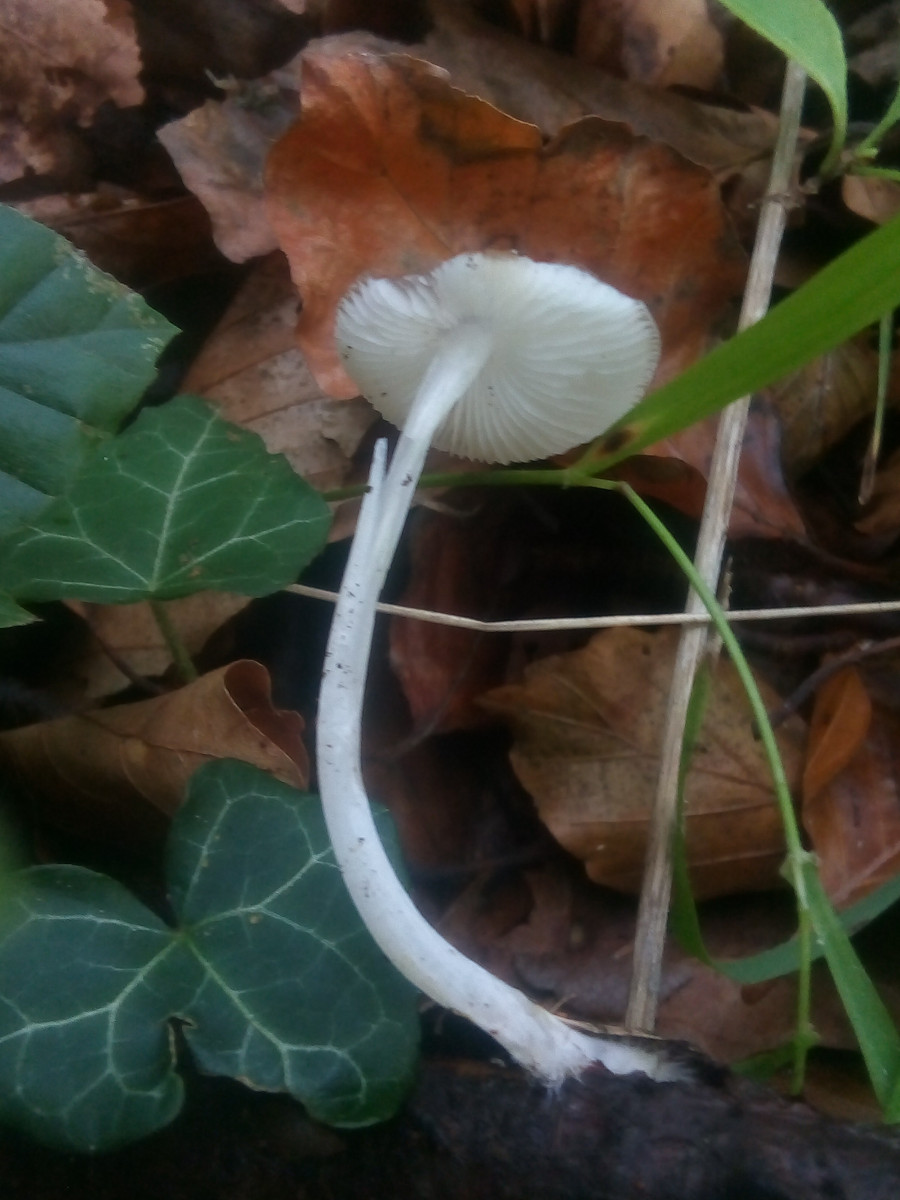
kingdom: Fungi
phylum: Basidiomycota
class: Agaricomycetes
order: Agaricales
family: Porotheleaceae
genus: Hydropodia
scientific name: Hydropodia subalpina
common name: vår-fnugfod
